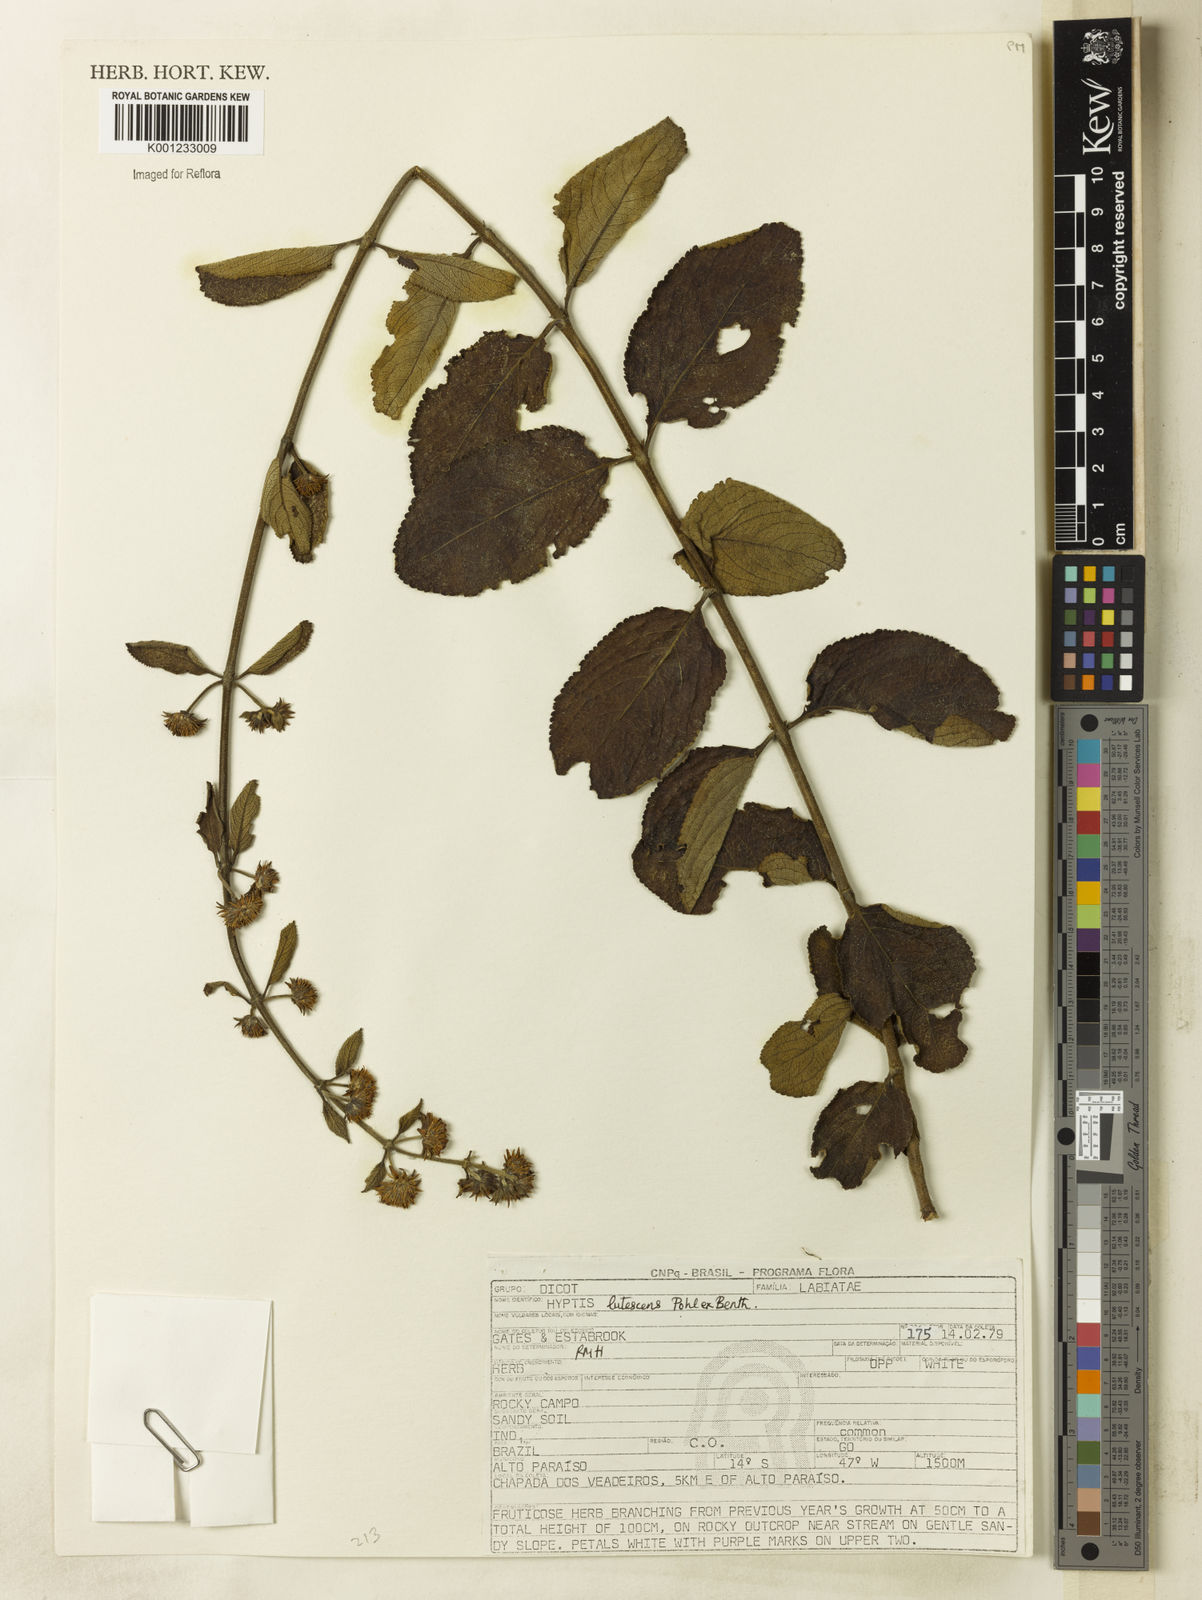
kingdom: Plantae
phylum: Tracheophyta
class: Magnoliopsida
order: Lamiales
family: Lamiaceae
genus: Hyptis
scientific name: Hyptis lutescens
